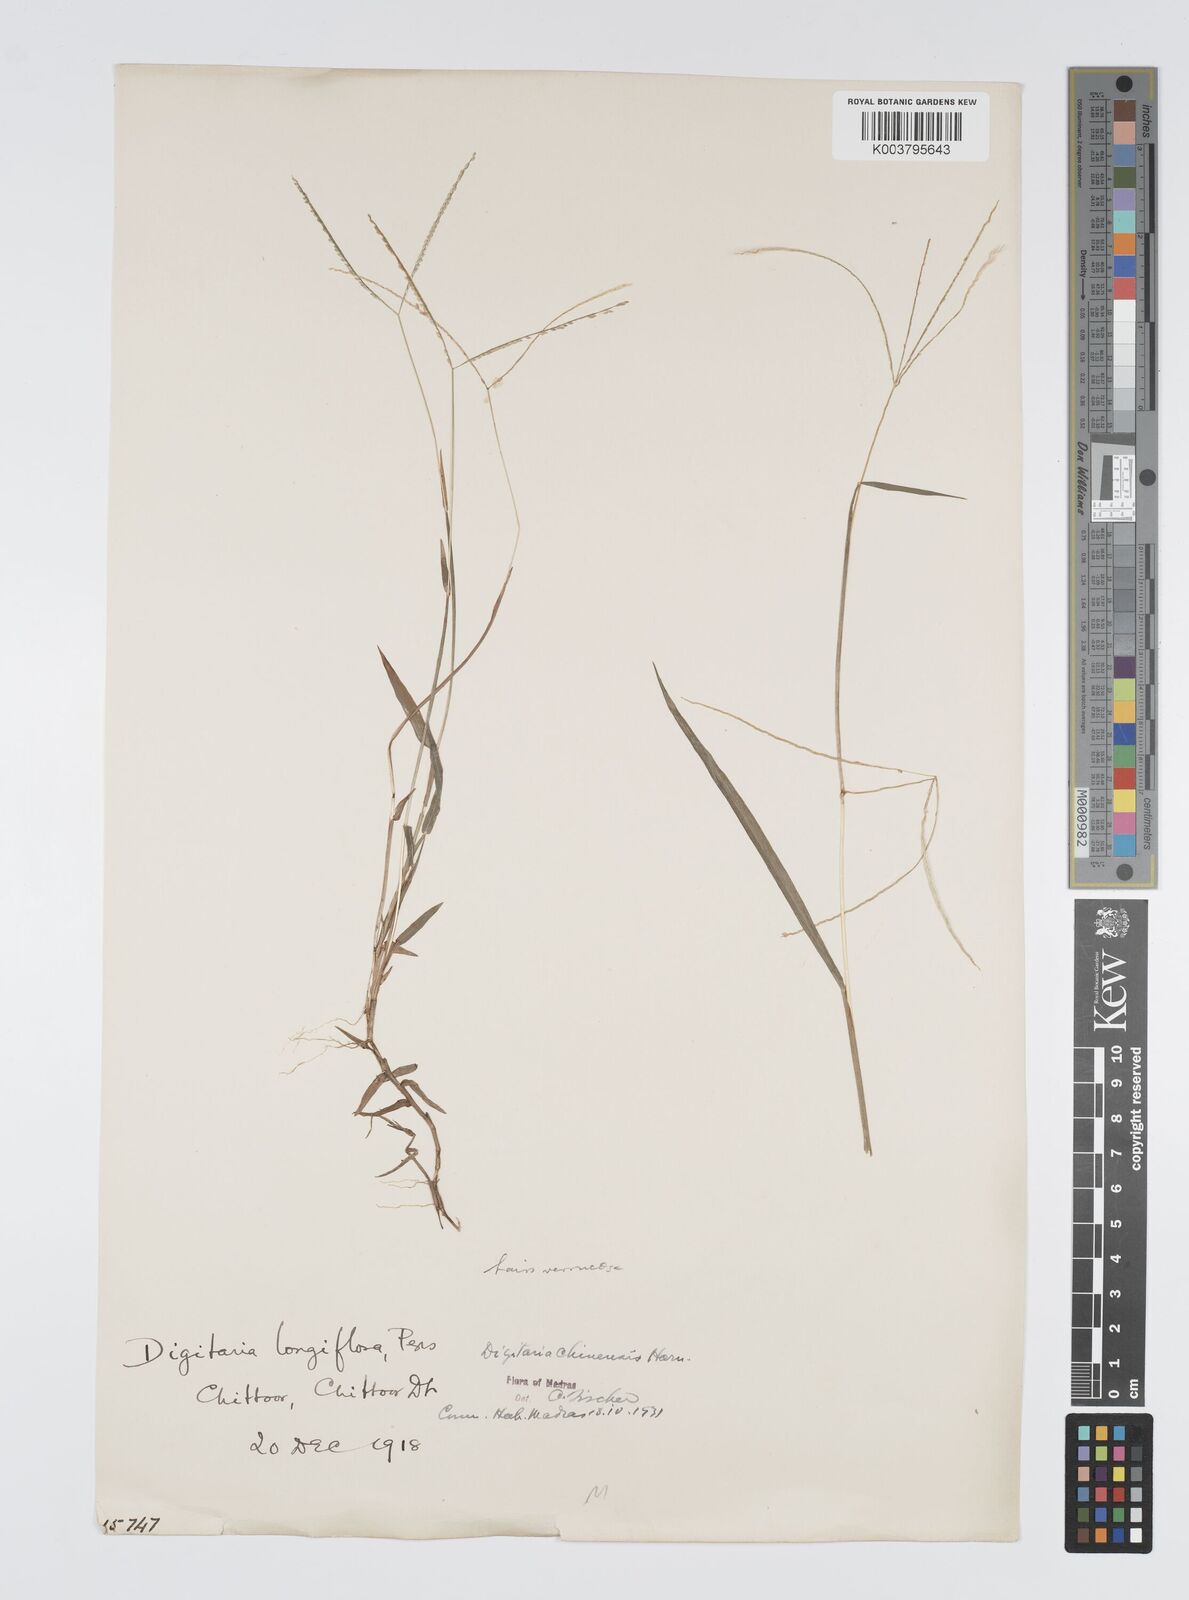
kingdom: Plantae
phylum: Tracheophyta
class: Liliopsida
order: Poales
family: Poaceae
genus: Digitaria
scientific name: Digitaria longiflora
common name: Wire crabgrass
